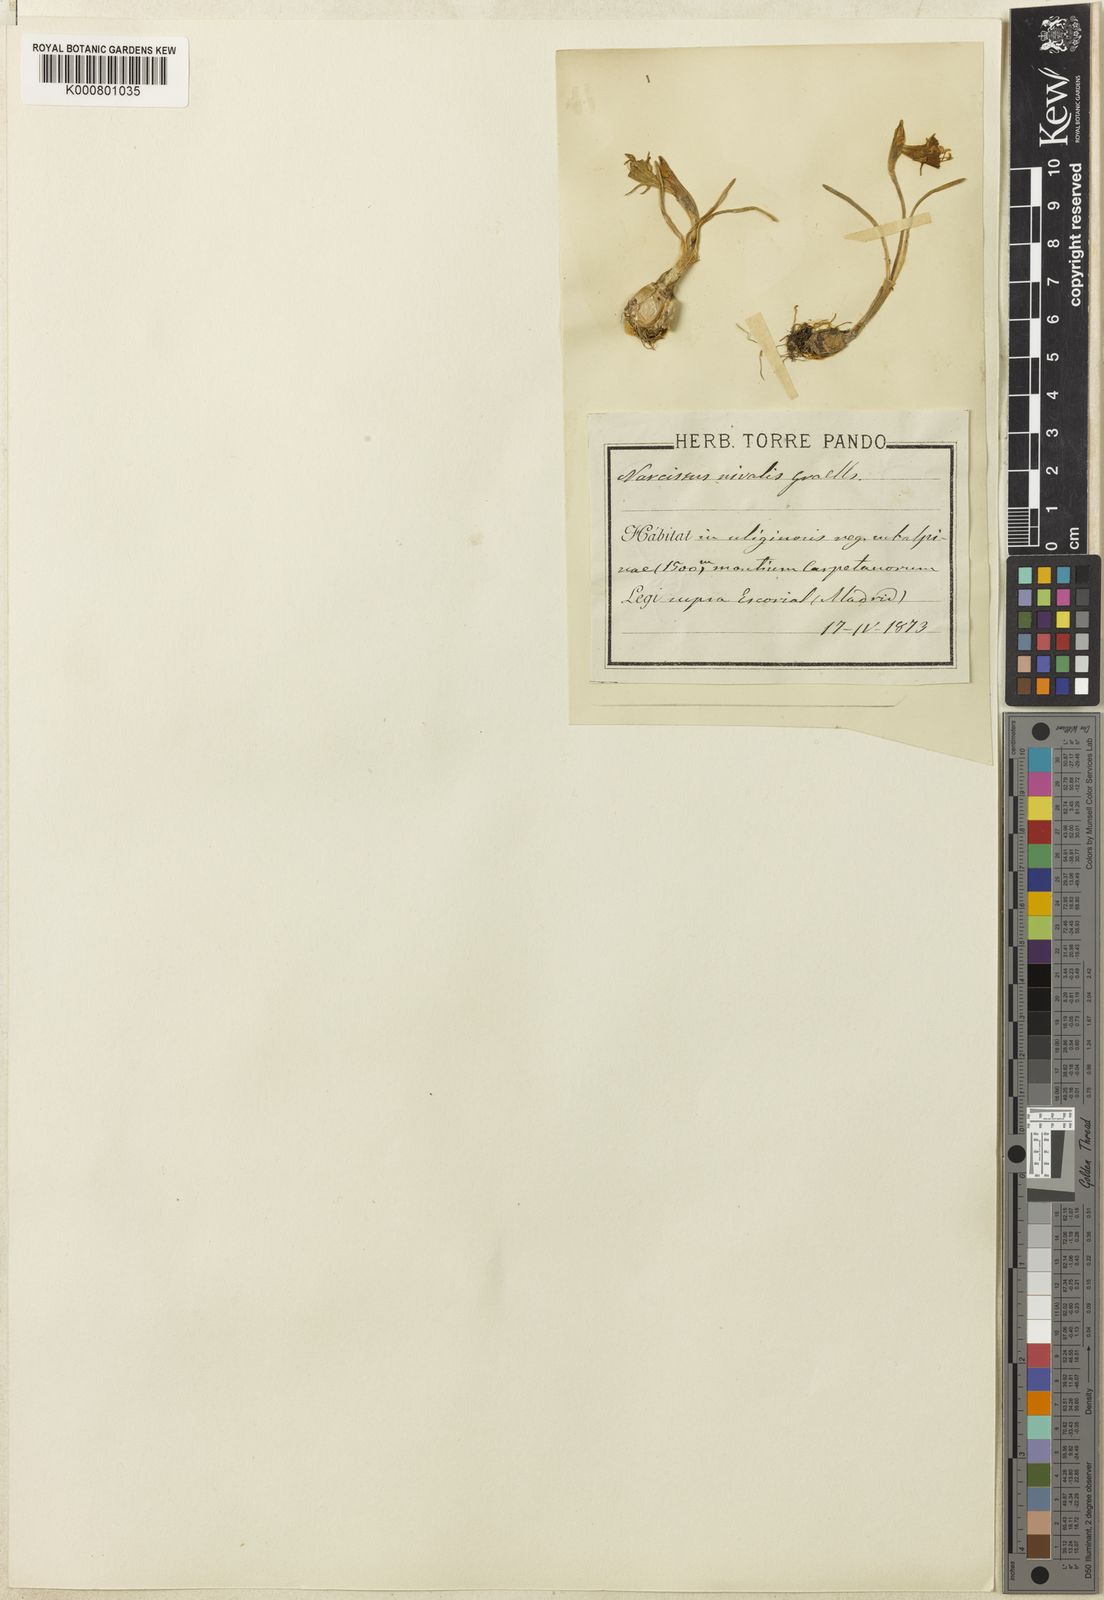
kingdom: Plantae
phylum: Tracheophyta
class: Liliopsida
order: Asparagales
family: Amaryllidaceae
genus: Narcissus
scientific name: Narcissus bulbocodium
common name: Hoop-petticoat daffodil
